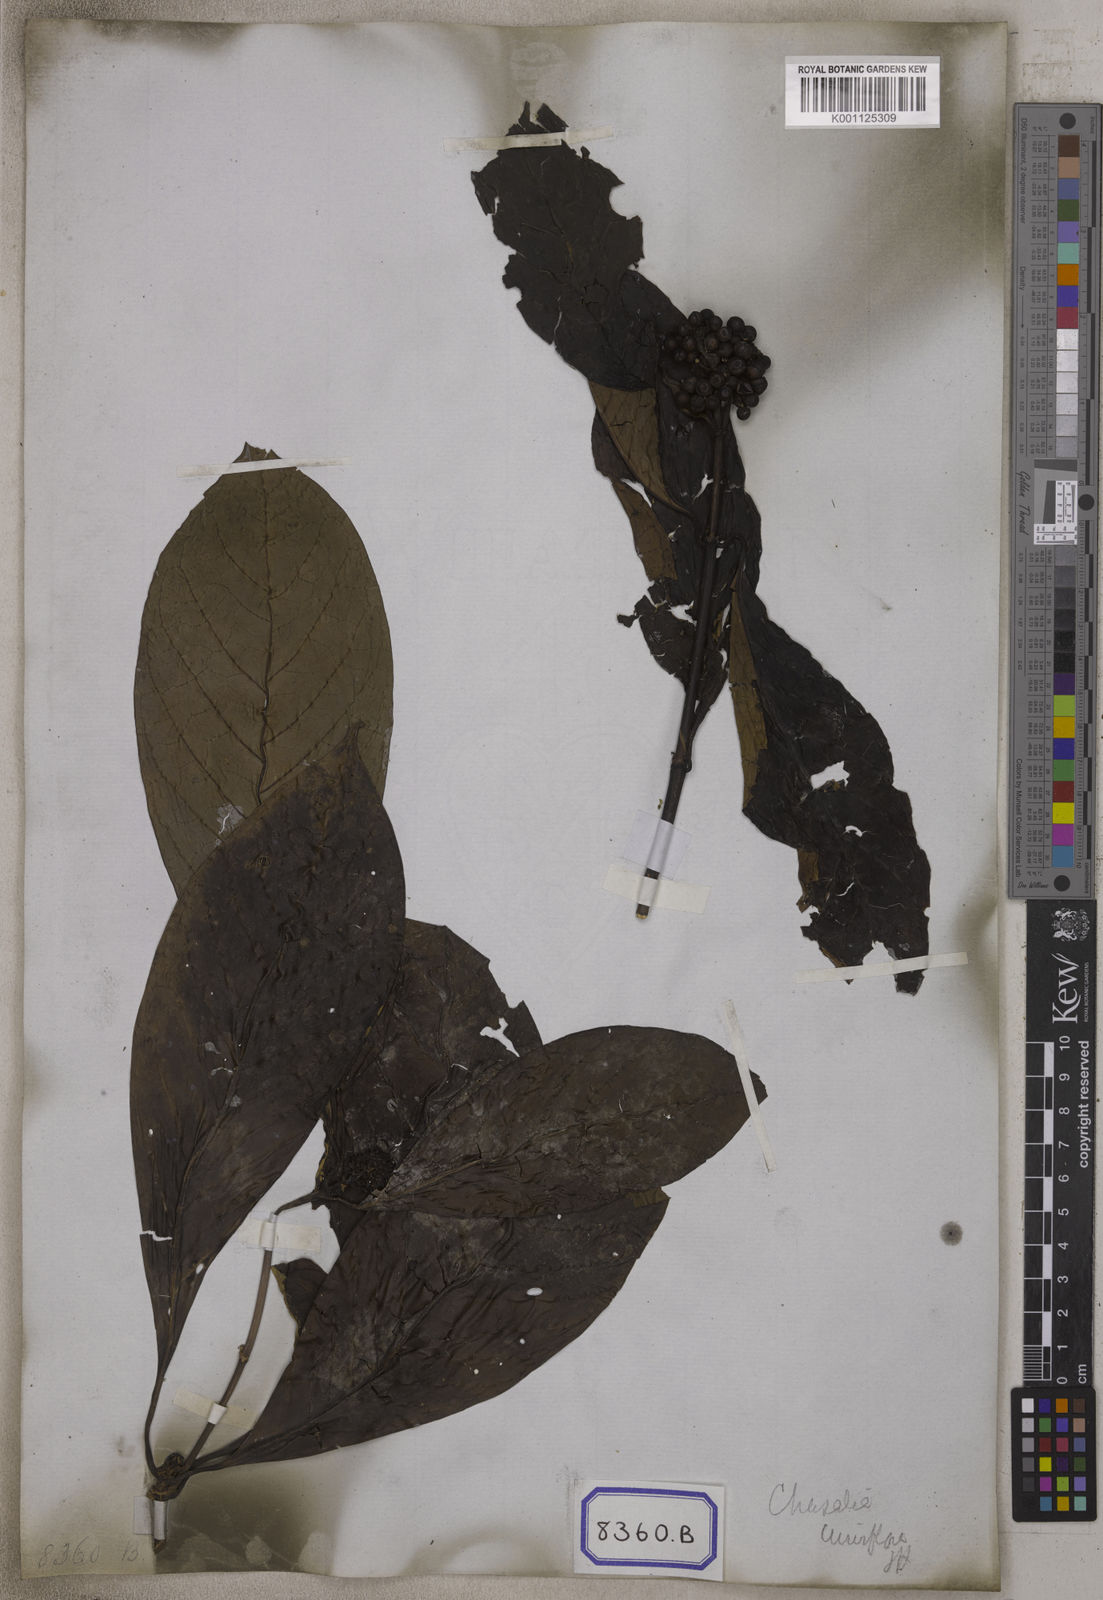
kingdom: Plantae
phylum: Tracheophyta
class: Magnoliopsida
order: Gentianales
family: Rubiaceae
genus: Chassalia
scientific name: Chassalia curviflora
